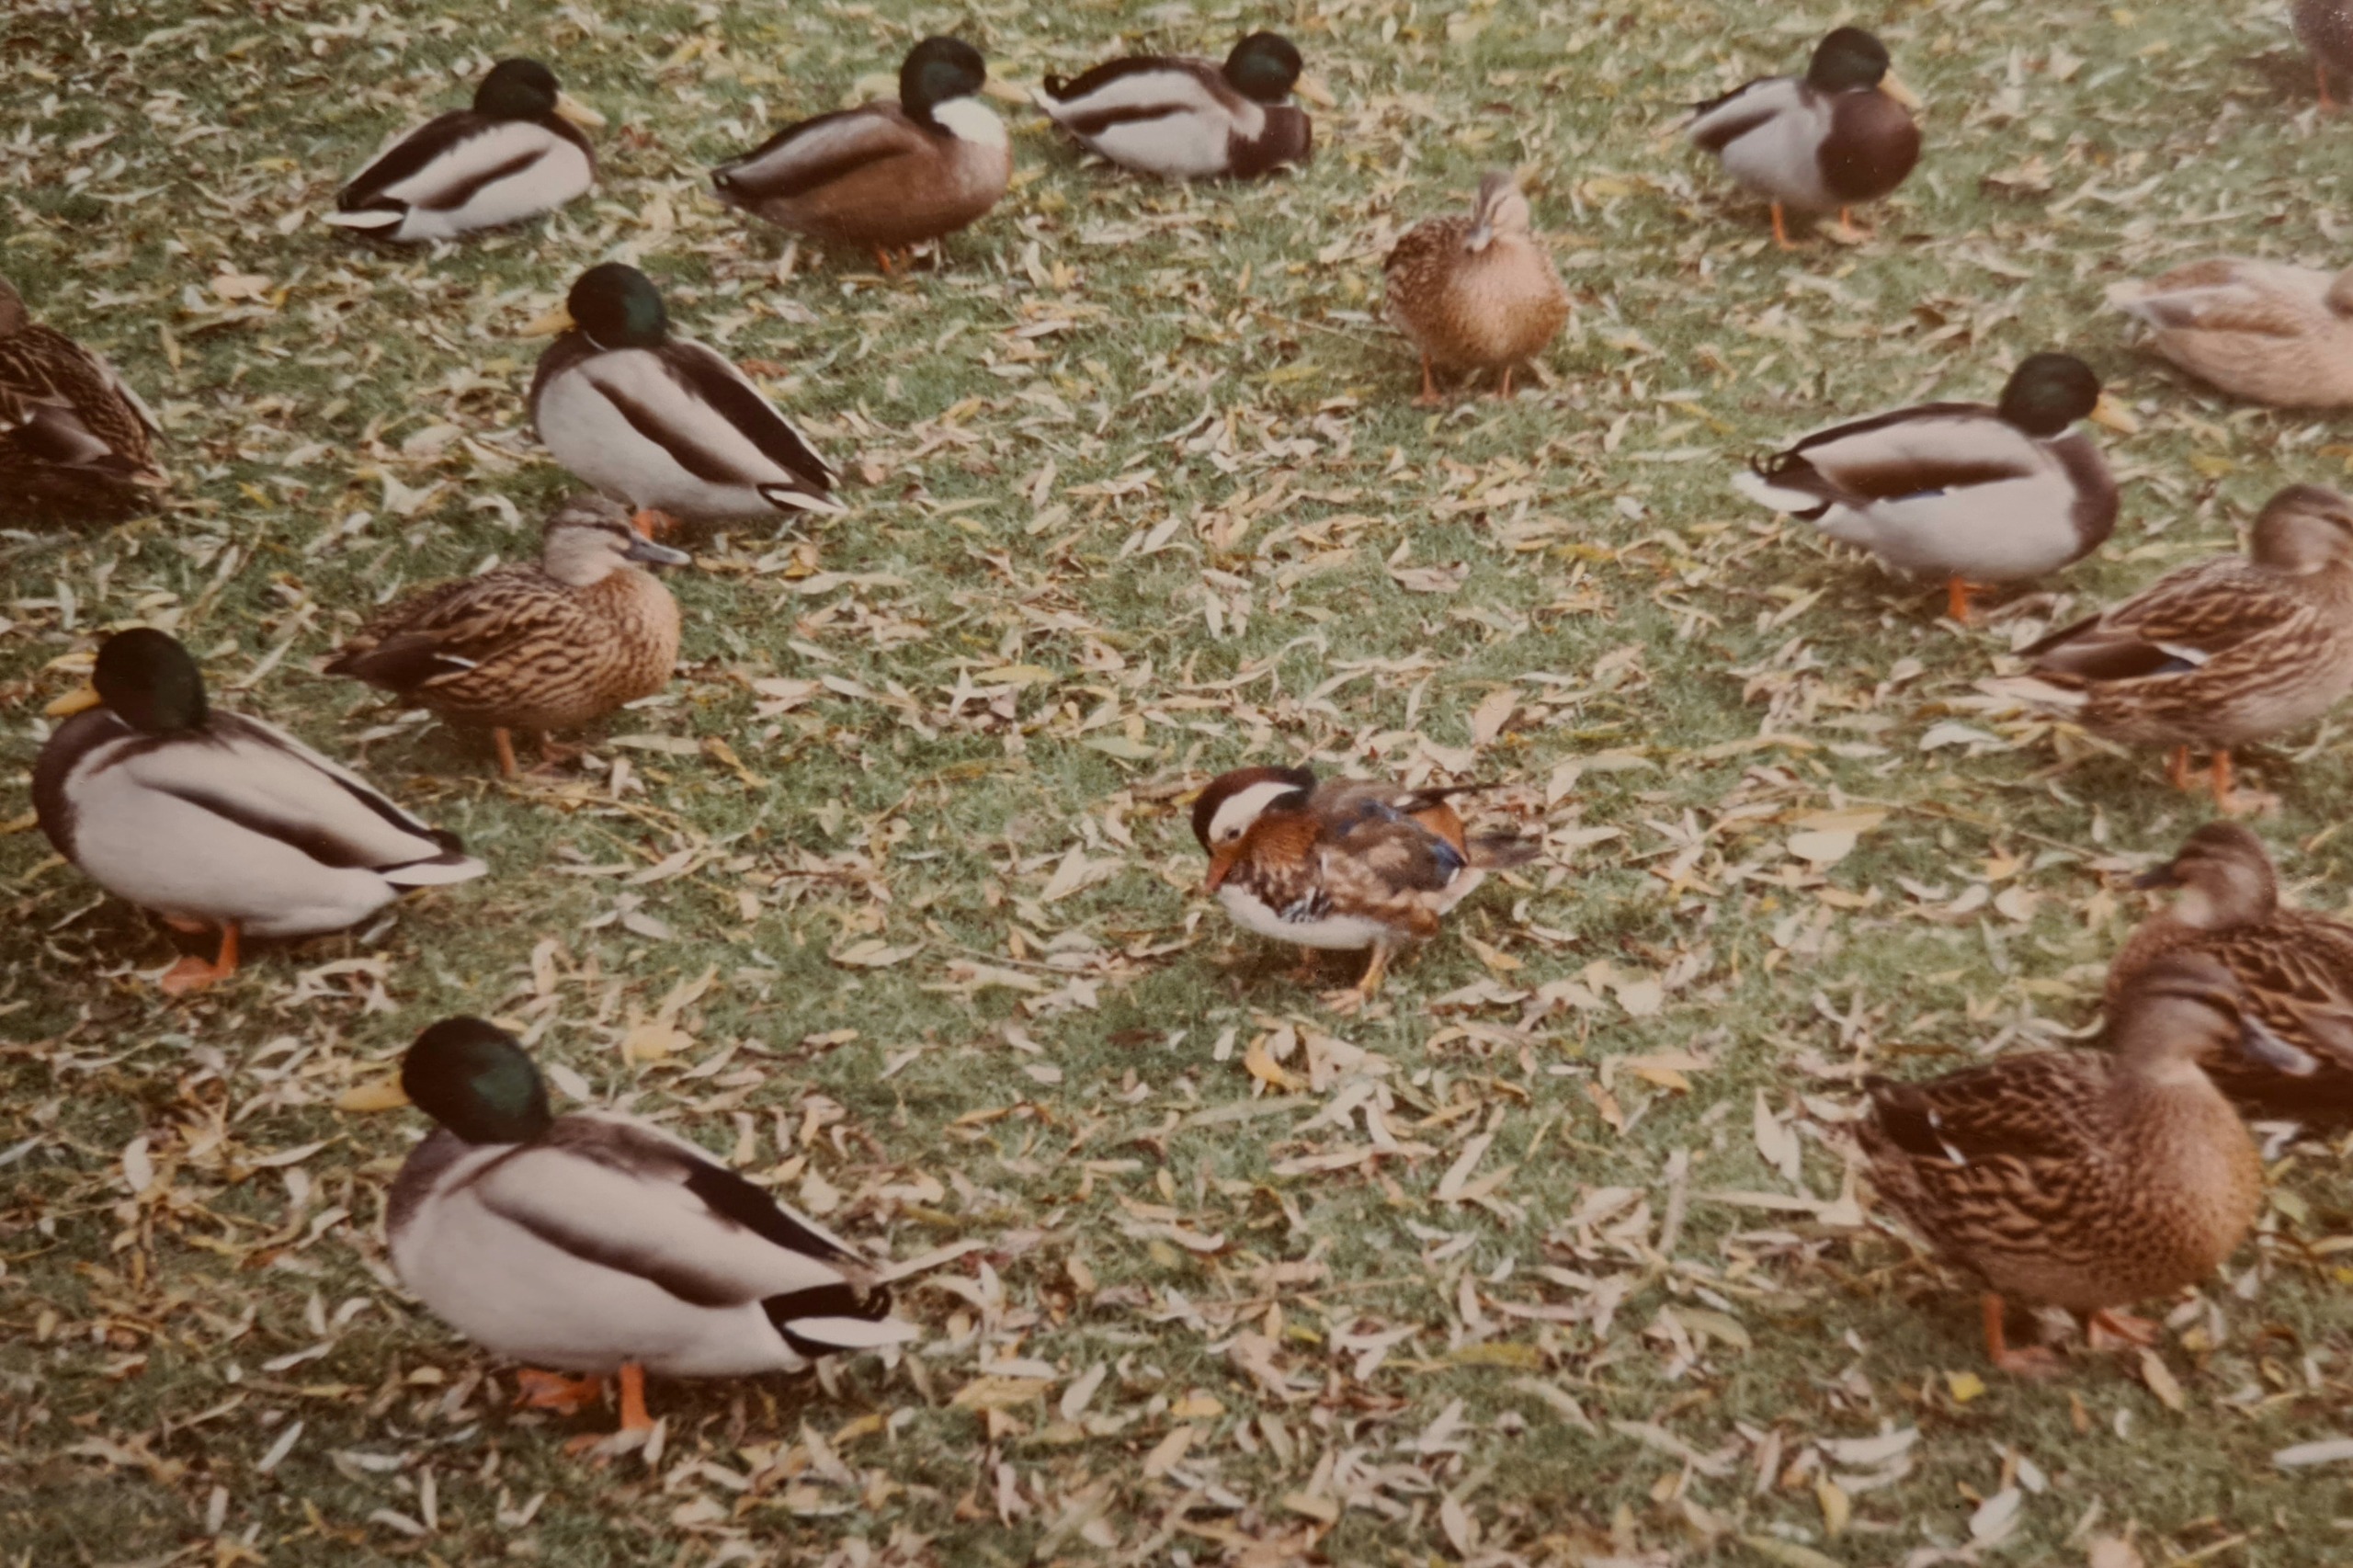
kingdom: Animalia
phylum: Chordata
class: Aves
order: Anseriformes
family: Anatidae
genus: Aix
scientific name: Aix galericulata
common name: Mandarinand
